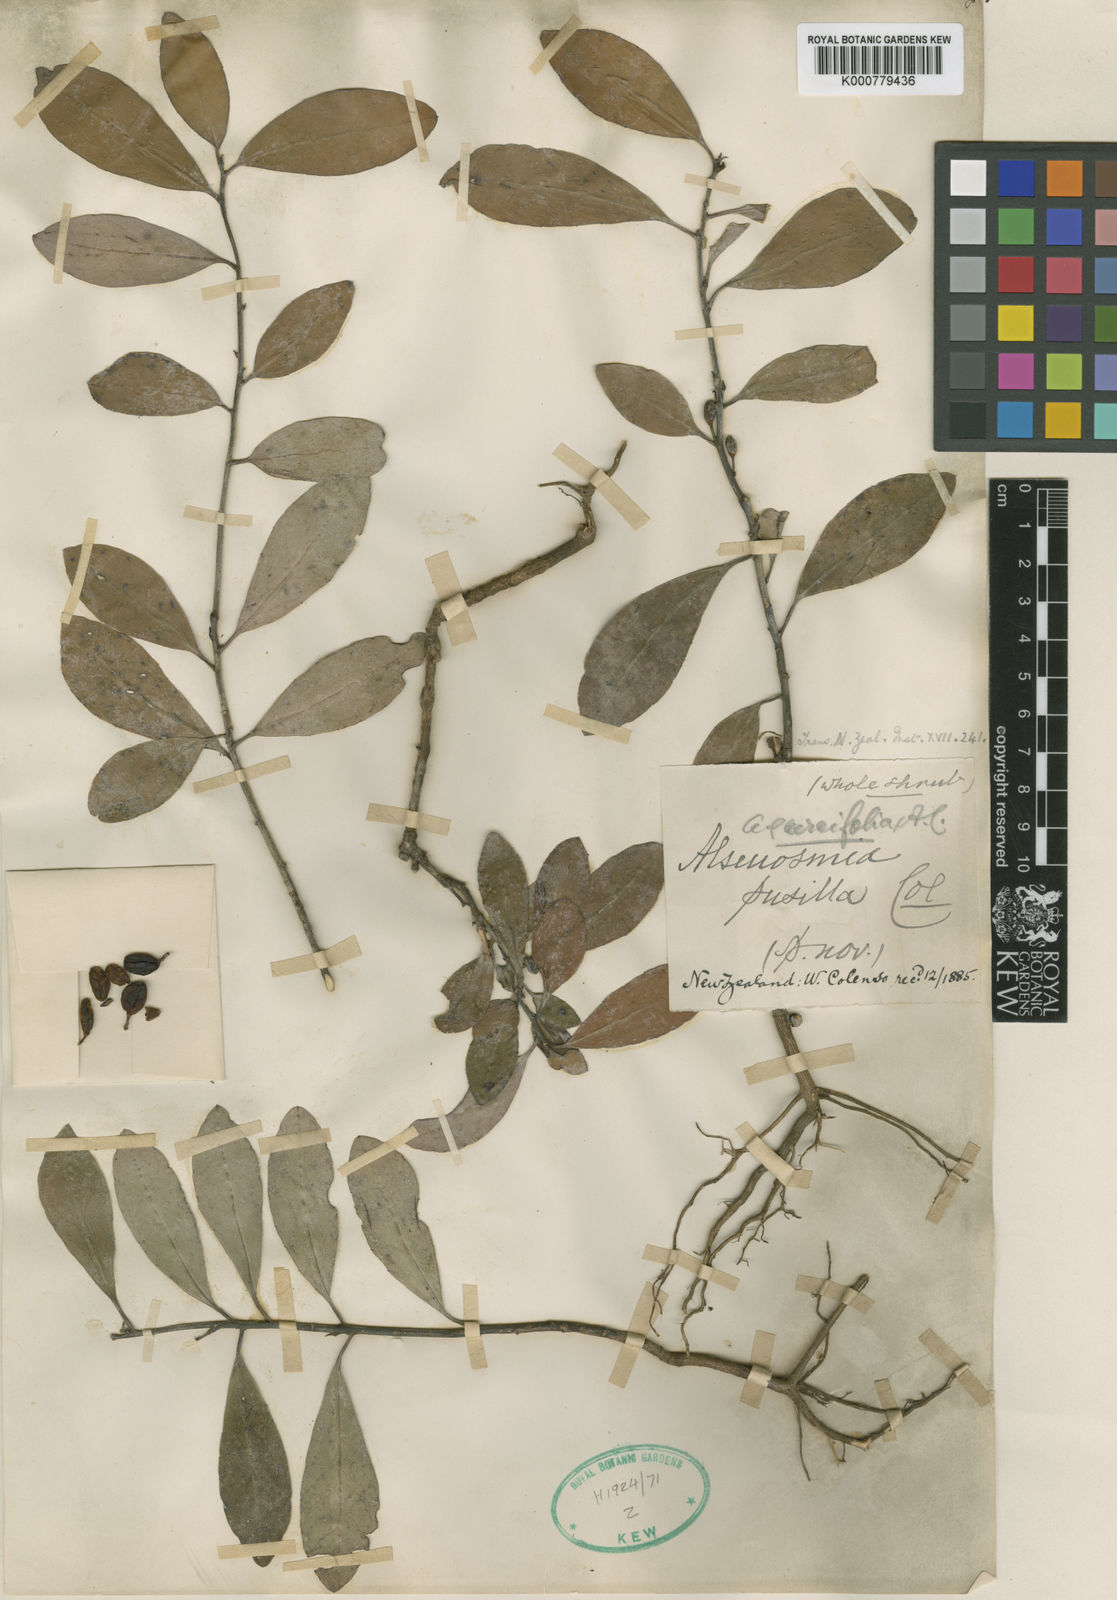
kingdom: Plantae
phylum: Tracheophyta
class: Magnoliopsida
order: Asterales
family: Alseuosmiaceae
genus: Alseuosmia
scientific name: Alseuosmia pusilla
